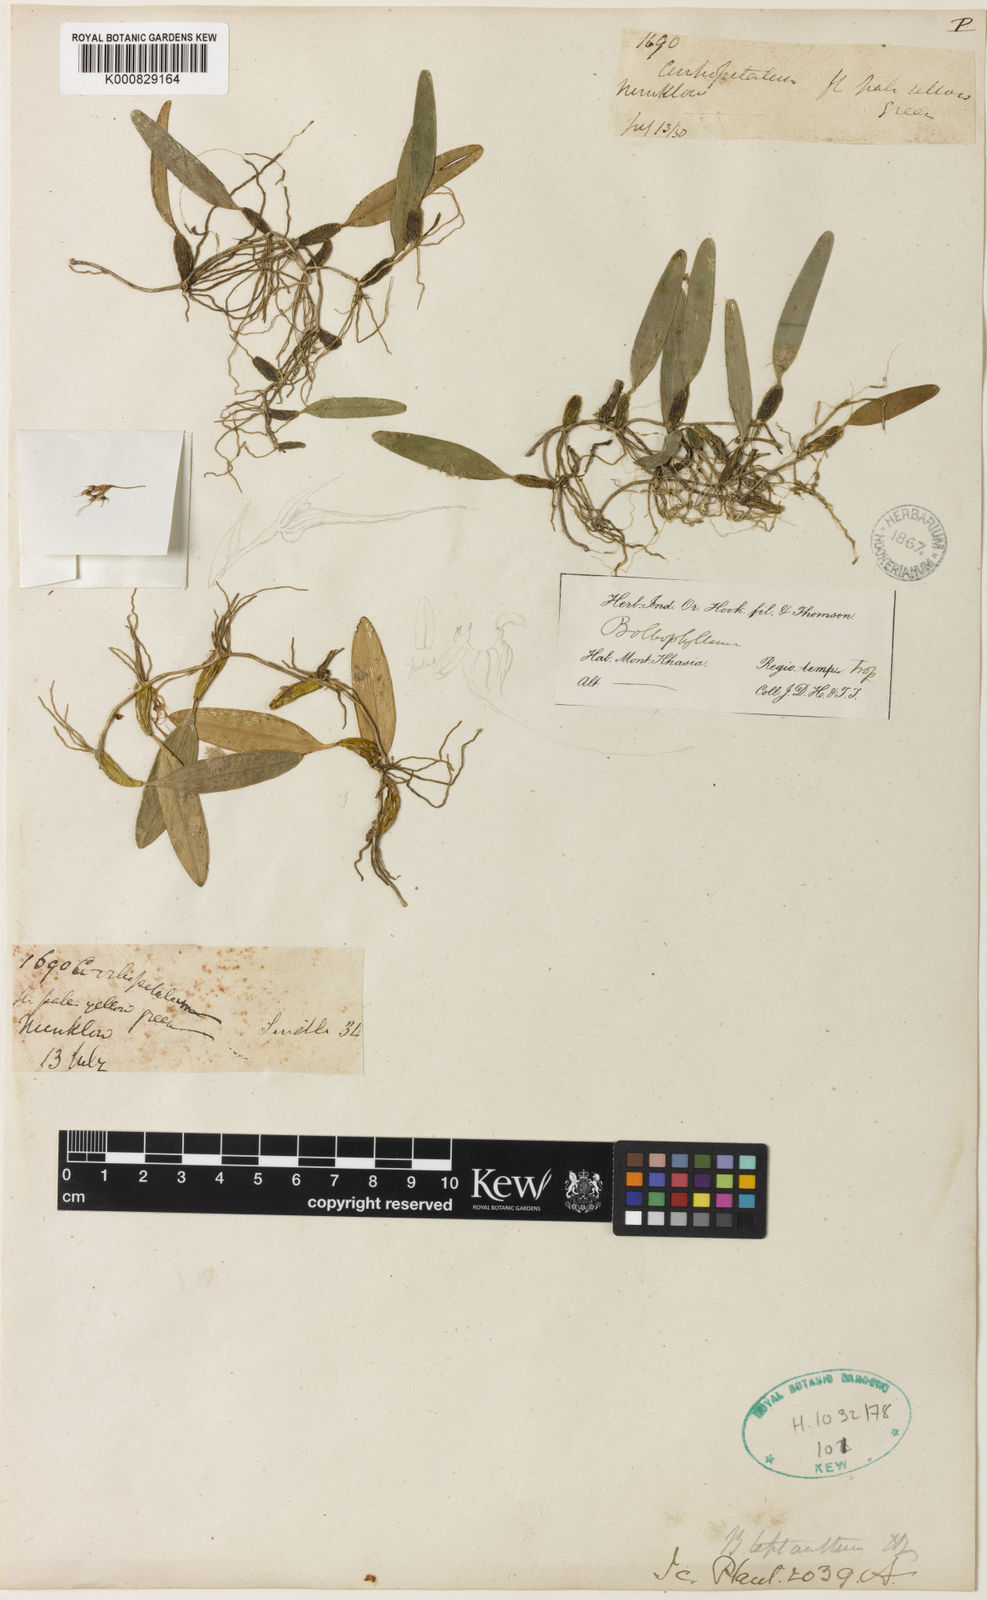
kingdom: Plantae
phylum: Tracheophyta
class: Liliopsida
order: Asparagales
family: Orchidaceae
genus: Bulbophyllum
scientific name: Bulbophyllum leptanthum
